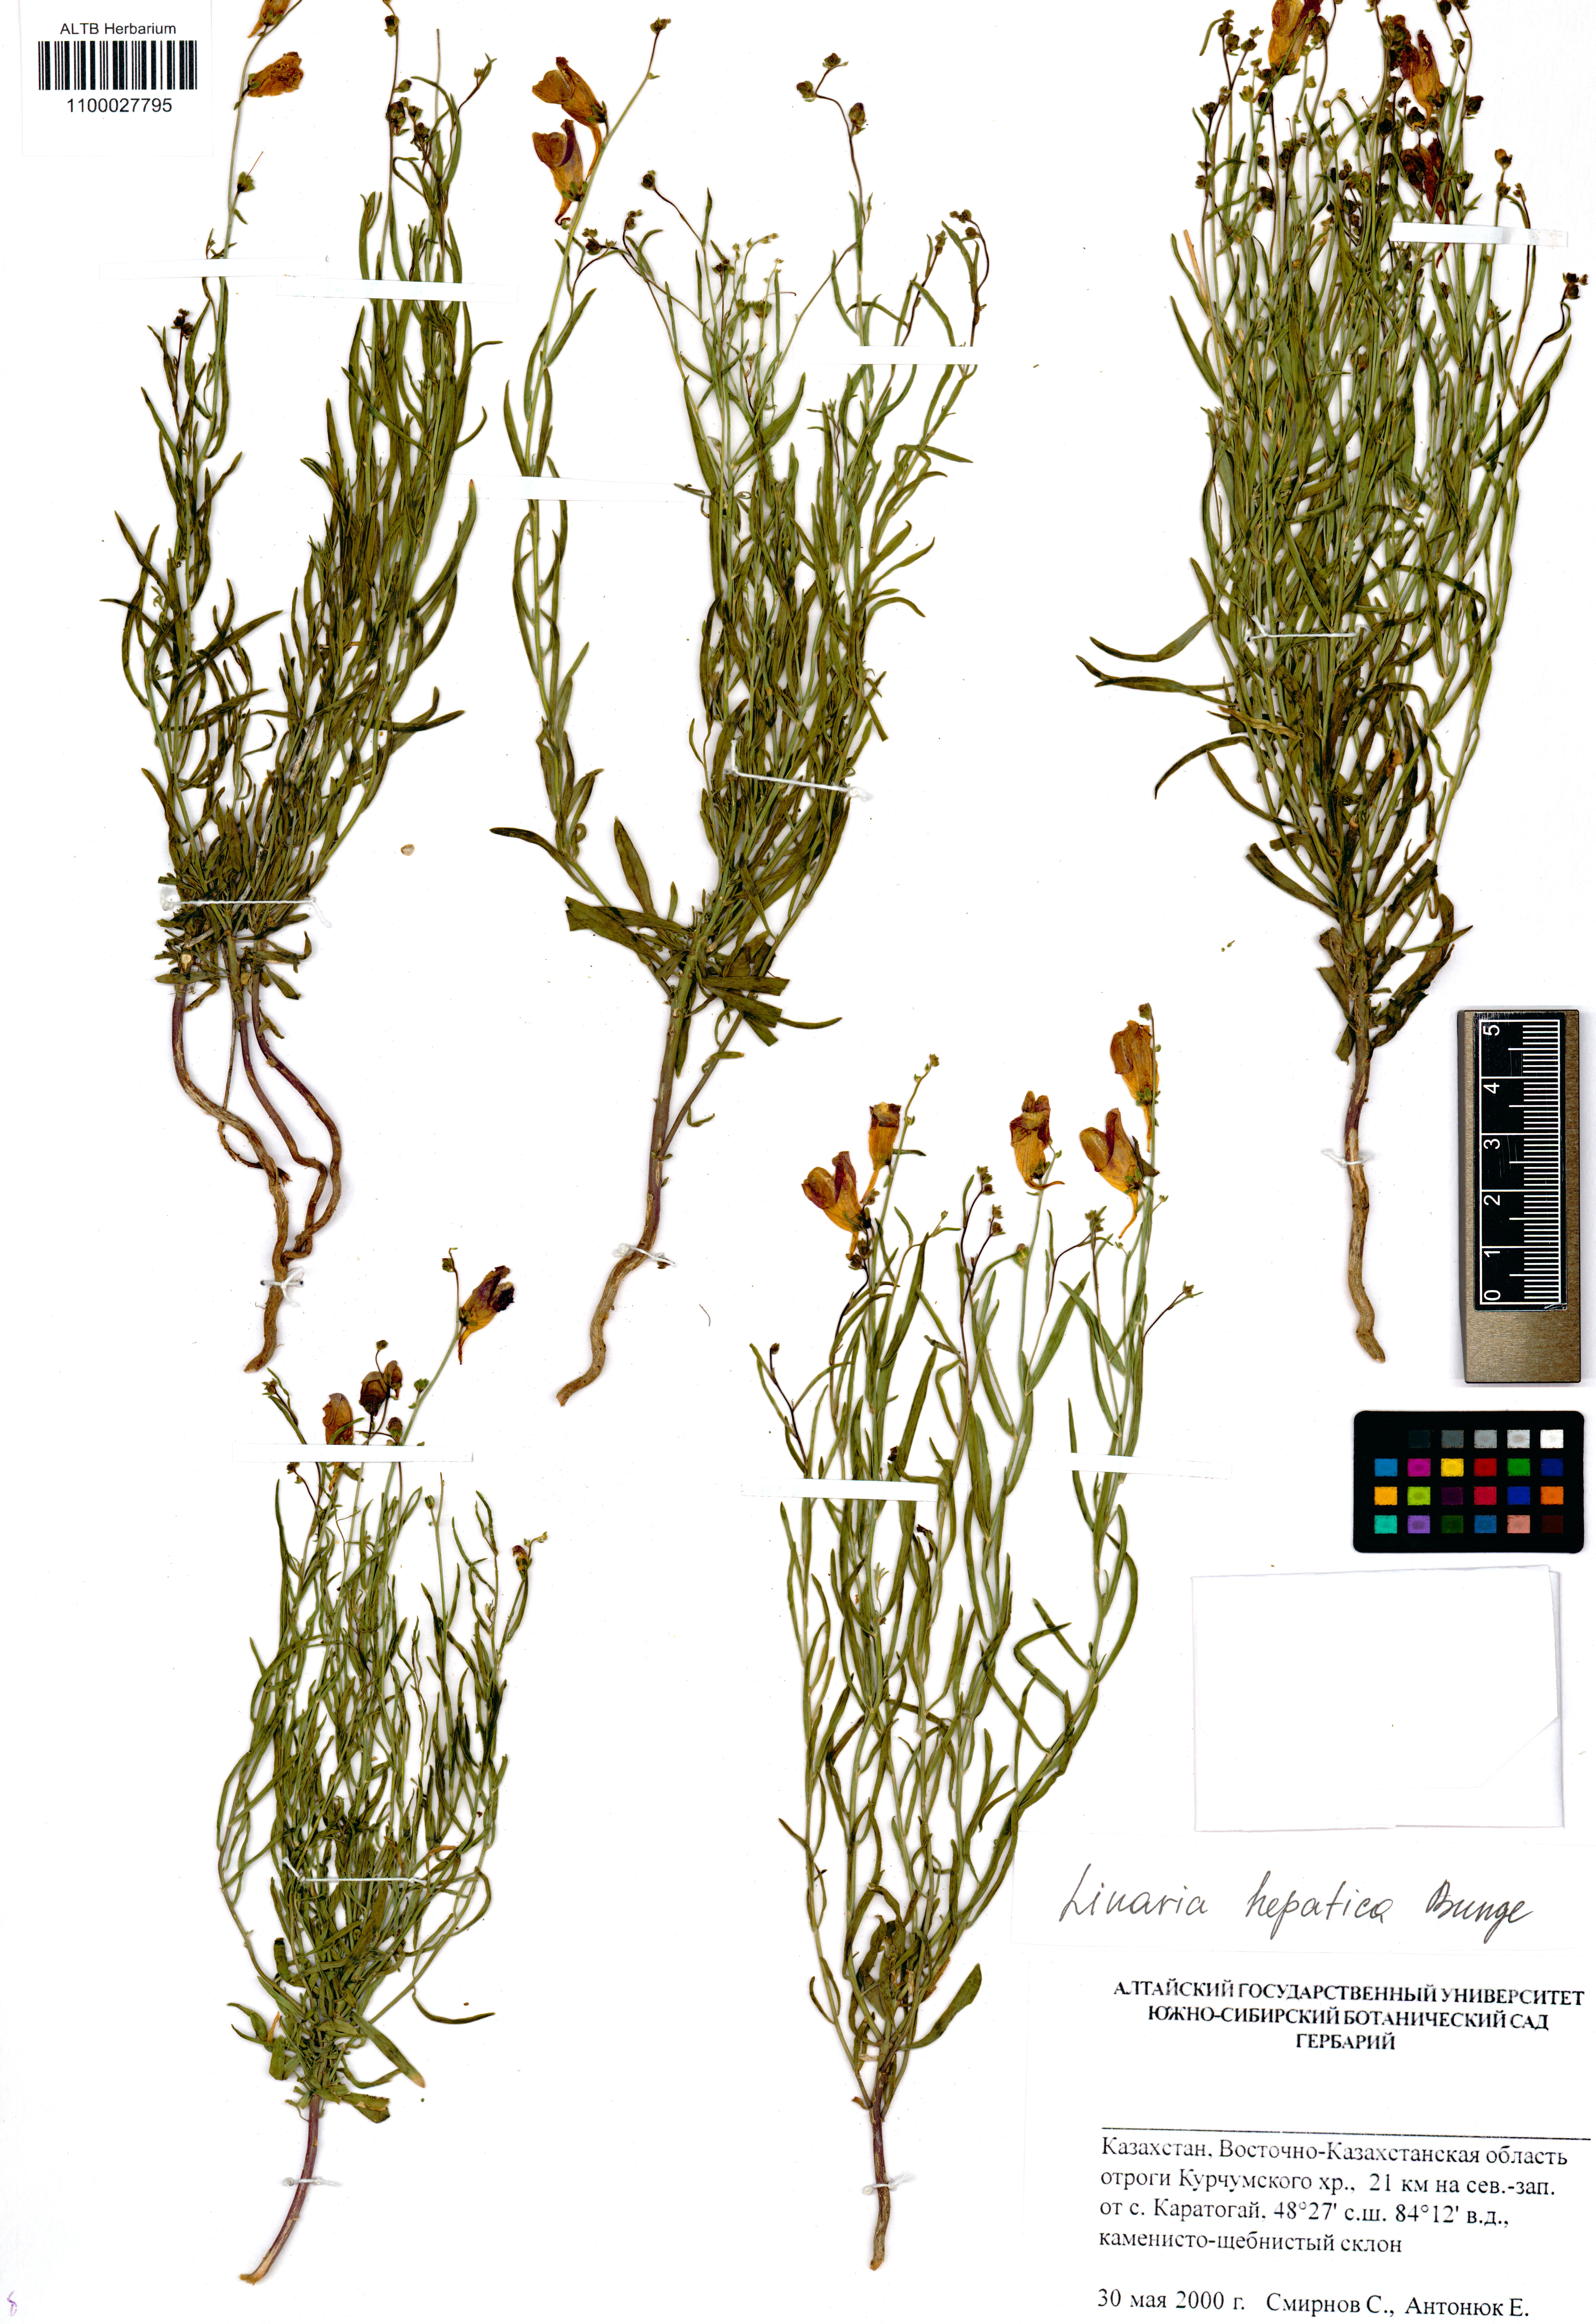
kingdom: Plantae
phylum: Tracheophyta
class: Magnoliopsida
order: Lamiales
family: Plantaginaceae
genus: Linaria
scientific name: Linaria hepatica
